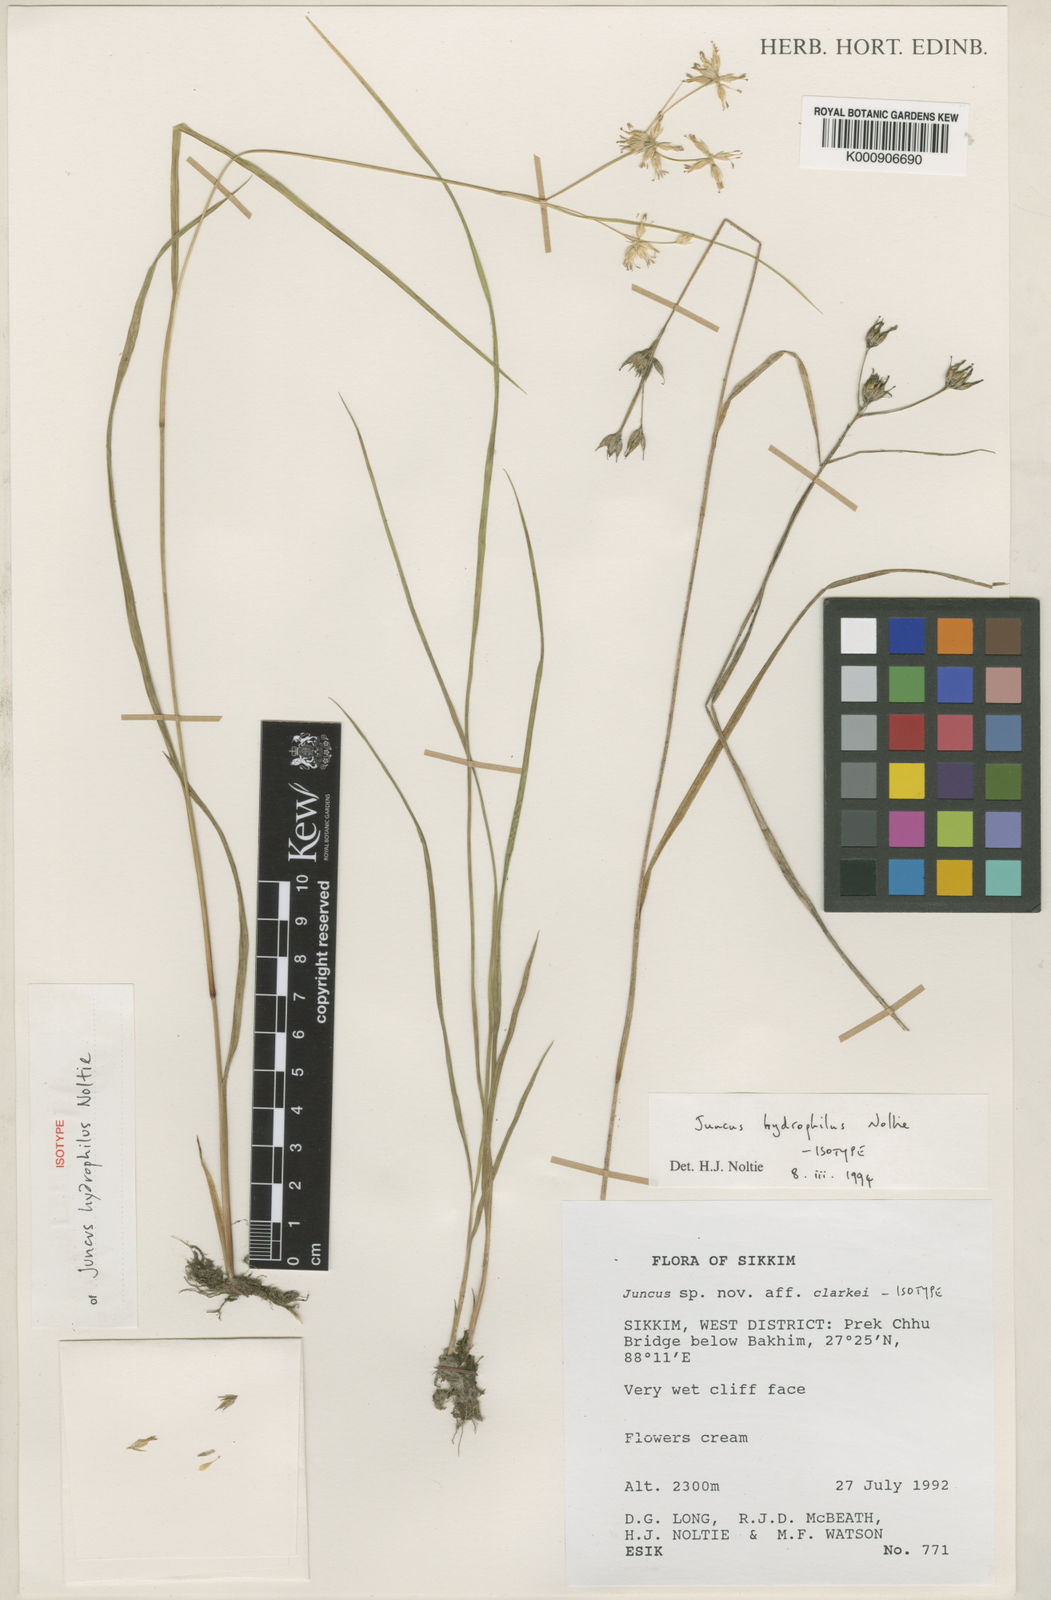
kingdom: Plantae
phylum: Tracheophyta
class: Liliopsida
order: Poales
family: Juncaceae
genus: Juncus
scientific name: Juncus hydrophilus
